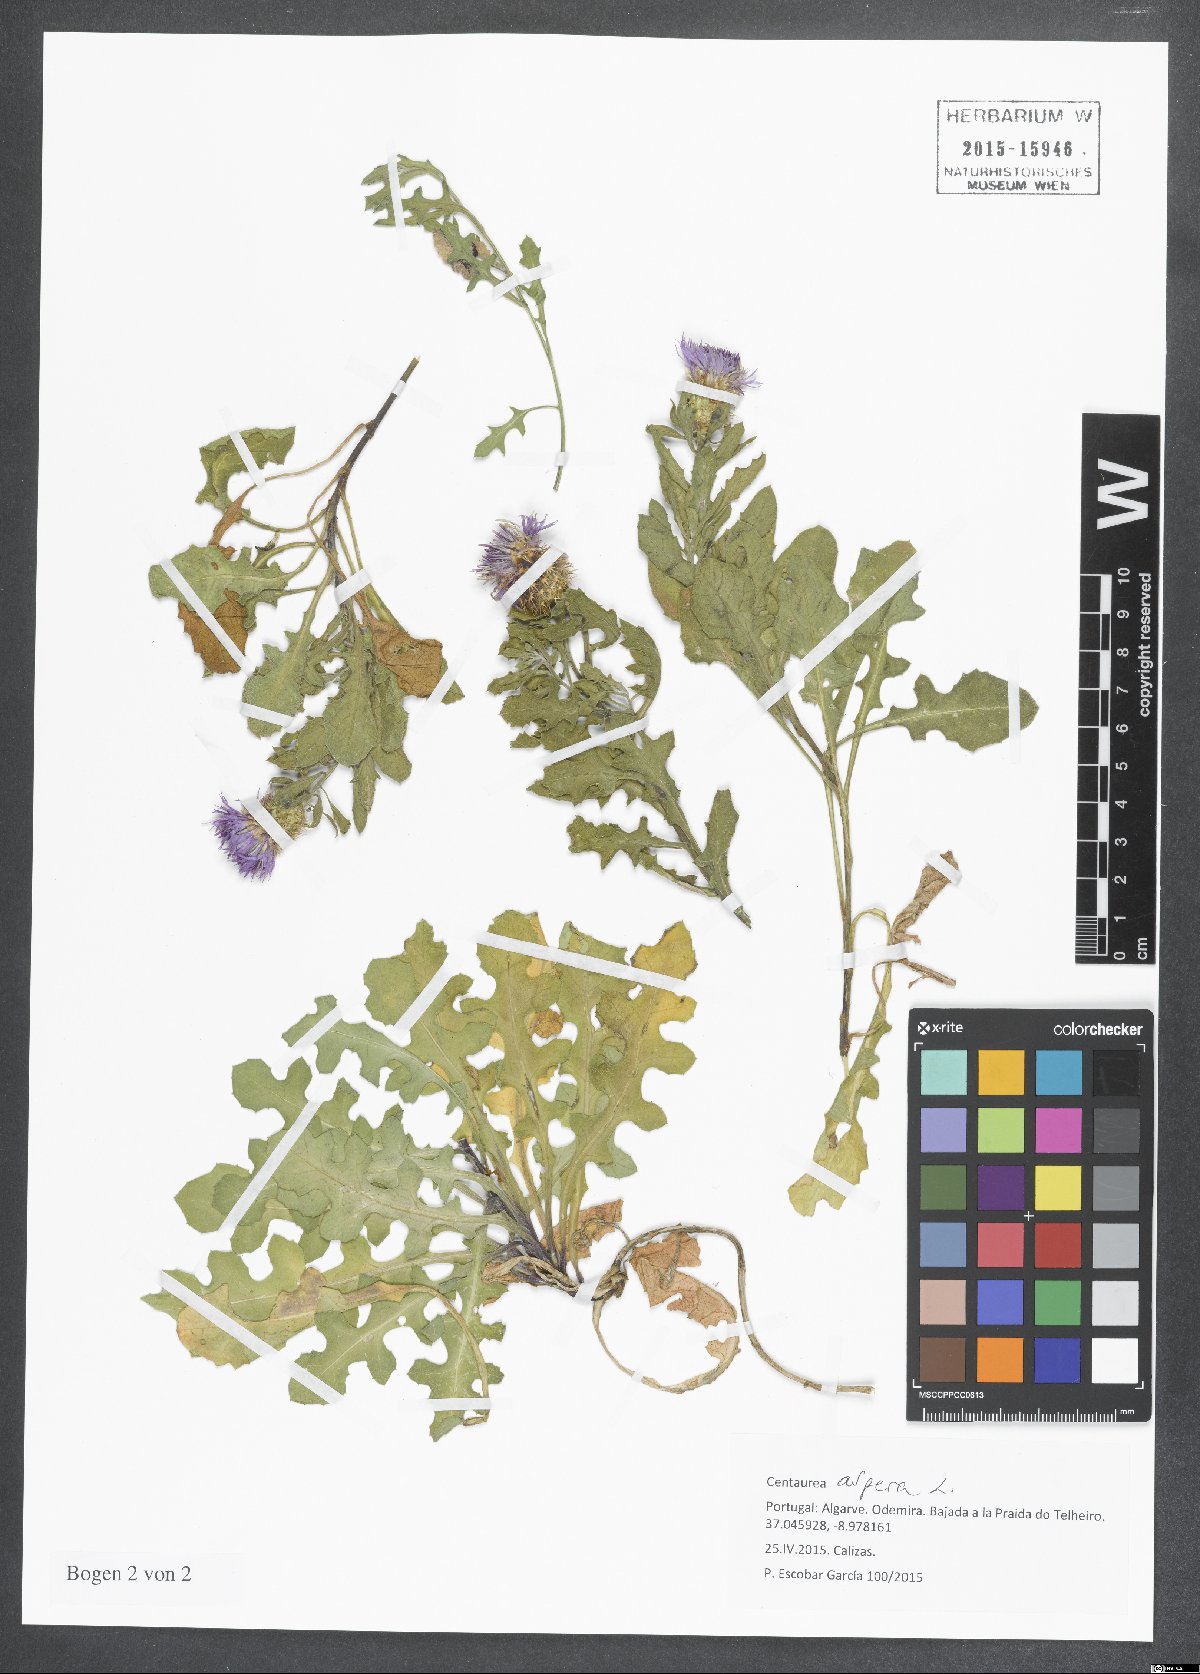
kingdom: Plantae
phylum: Tracheophyta
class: Magnoliopsida
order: Asterales
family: Asteraceae
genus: Centaurea
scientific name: Centaurea aspera
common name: Rough star-thistle
